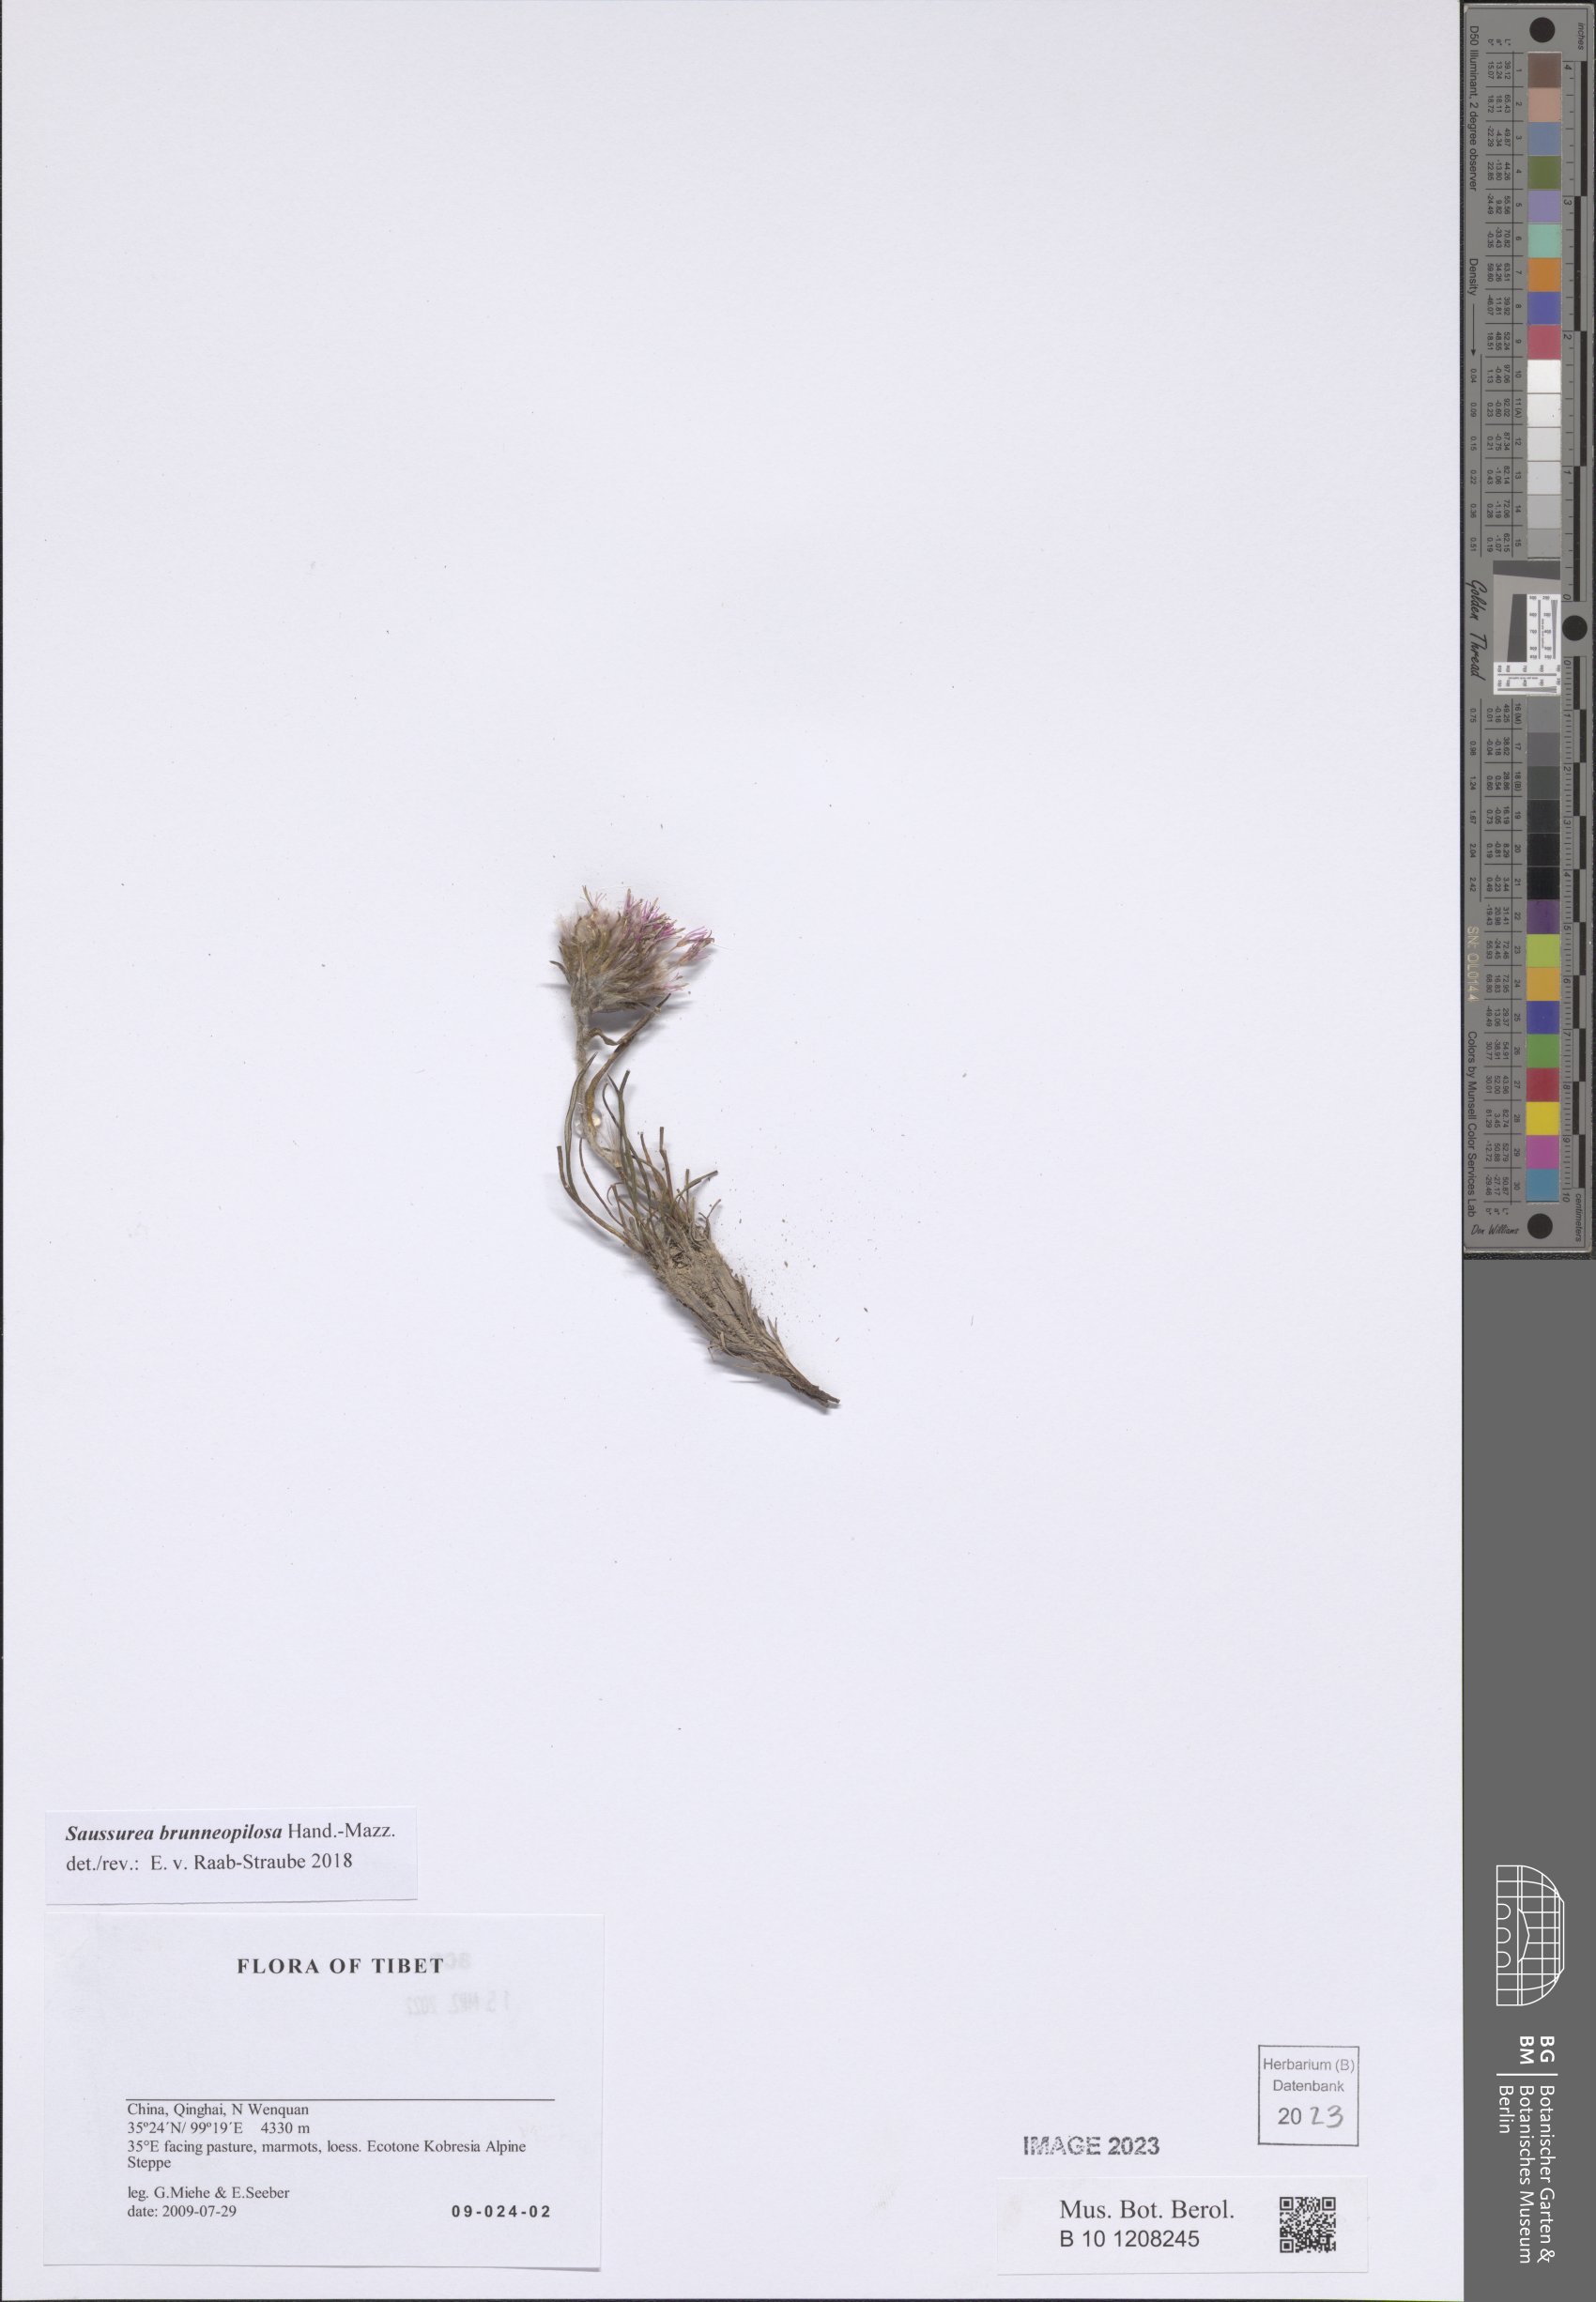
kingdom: Plantae
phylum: Tracheophyta
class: Magnoliopsida
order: Asterales
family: Asteraceae
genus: Saussurea
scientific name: Saussurea brunneopilosa
